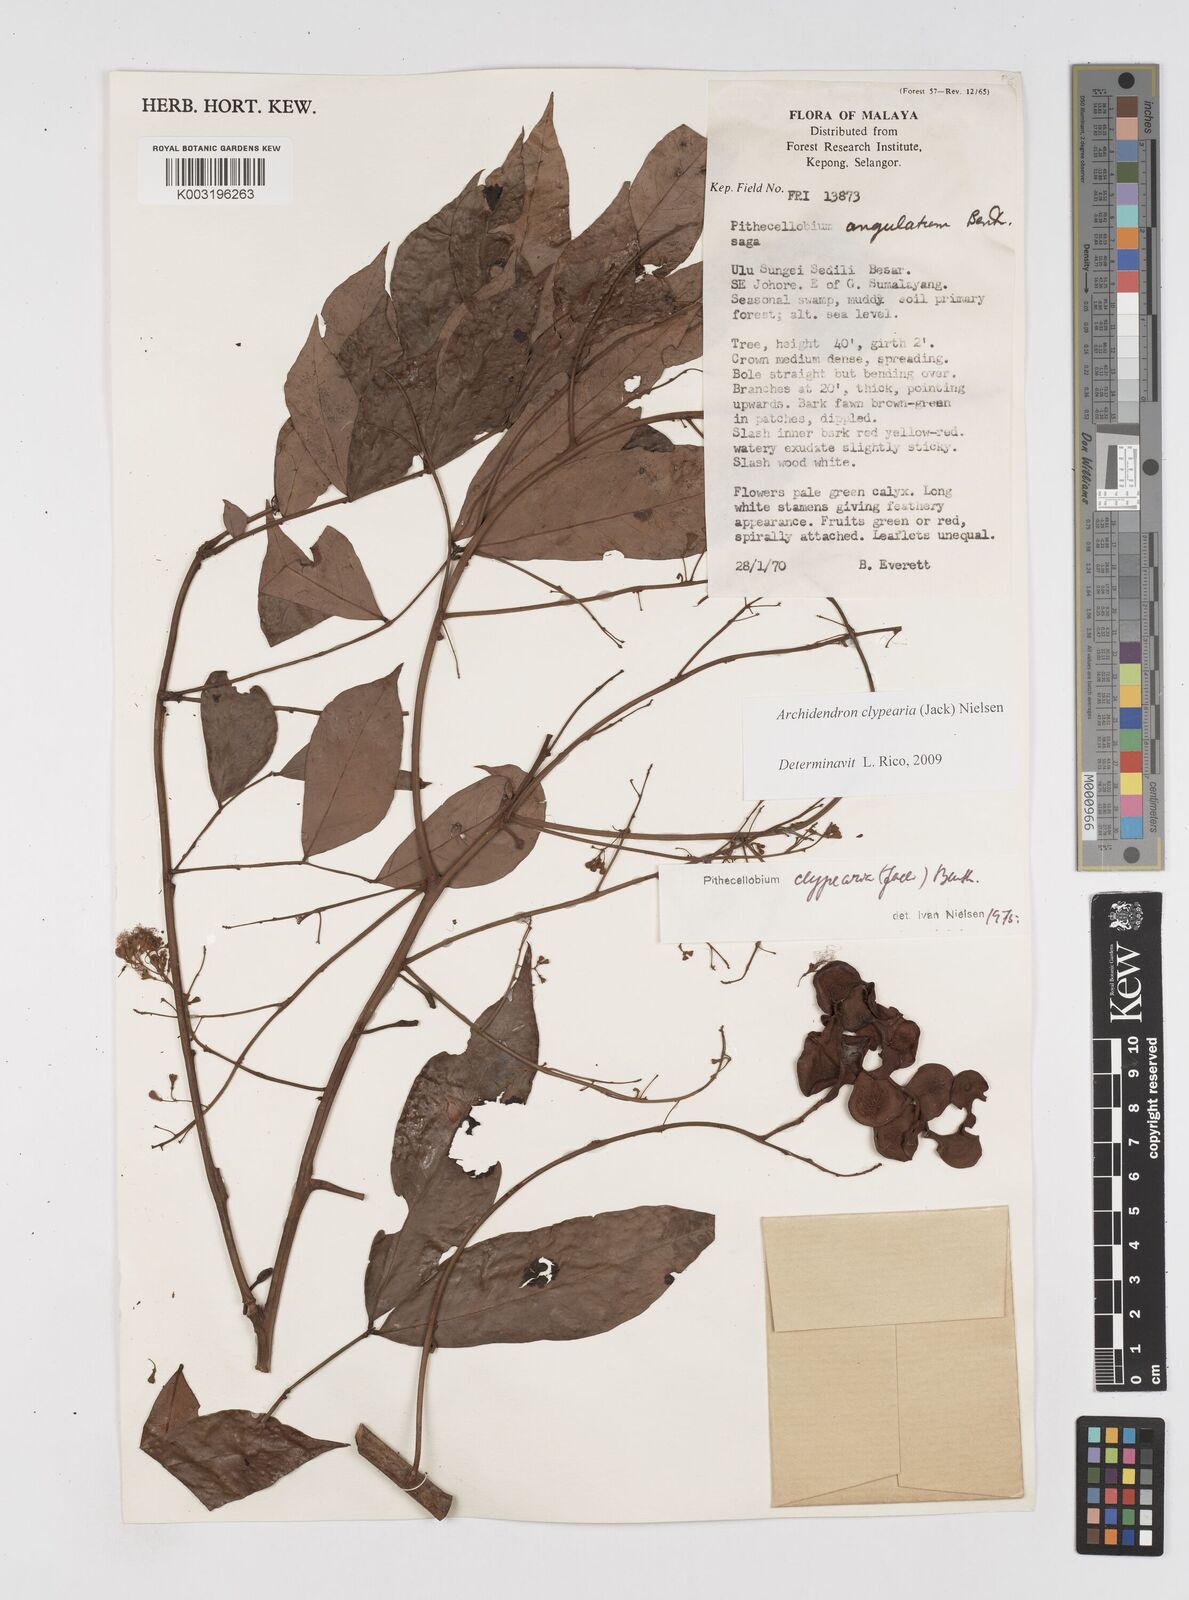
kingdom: Plantae
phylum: Tracheophyta
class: Magnoliopsida
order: Fabales
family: Fabaceae
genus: Archidendron
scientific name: Archidendron clypearia
